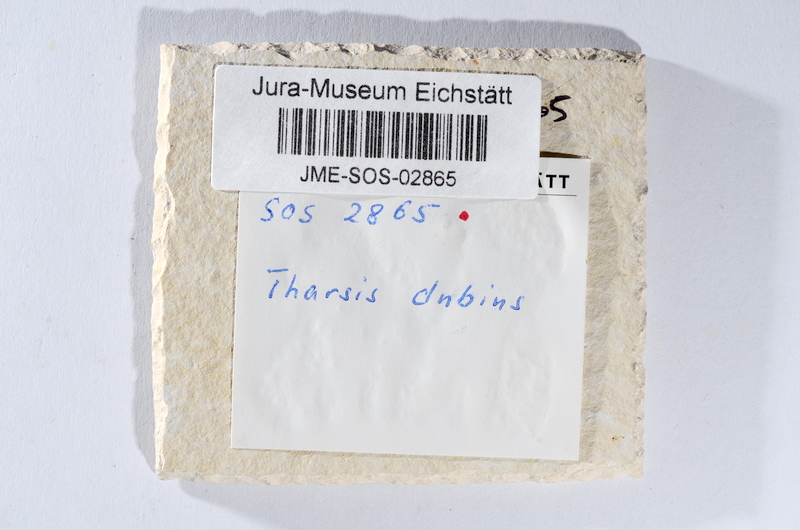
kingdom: Animalia
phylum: Chordata
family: Ascalaboidae
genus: Tharsis
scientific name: Tharsis dubius
